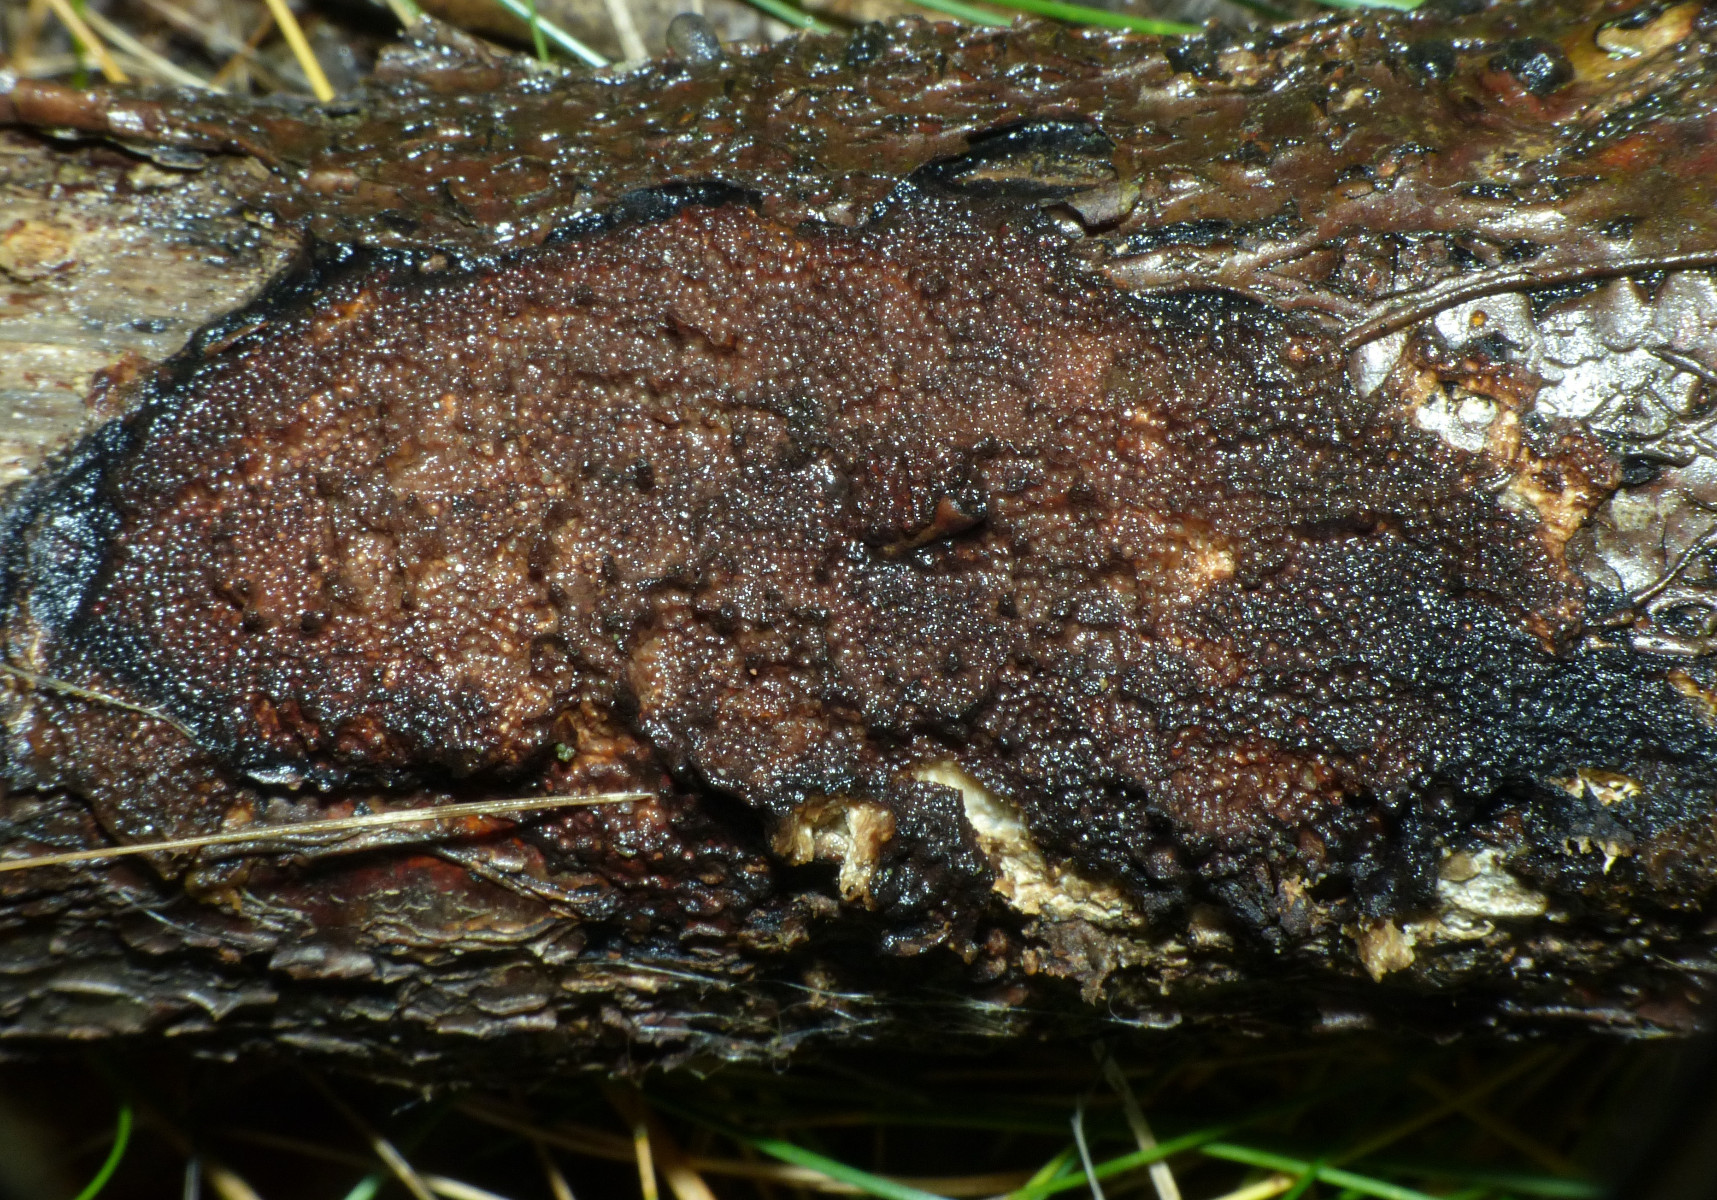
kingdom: Fungi
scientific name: Fungi
